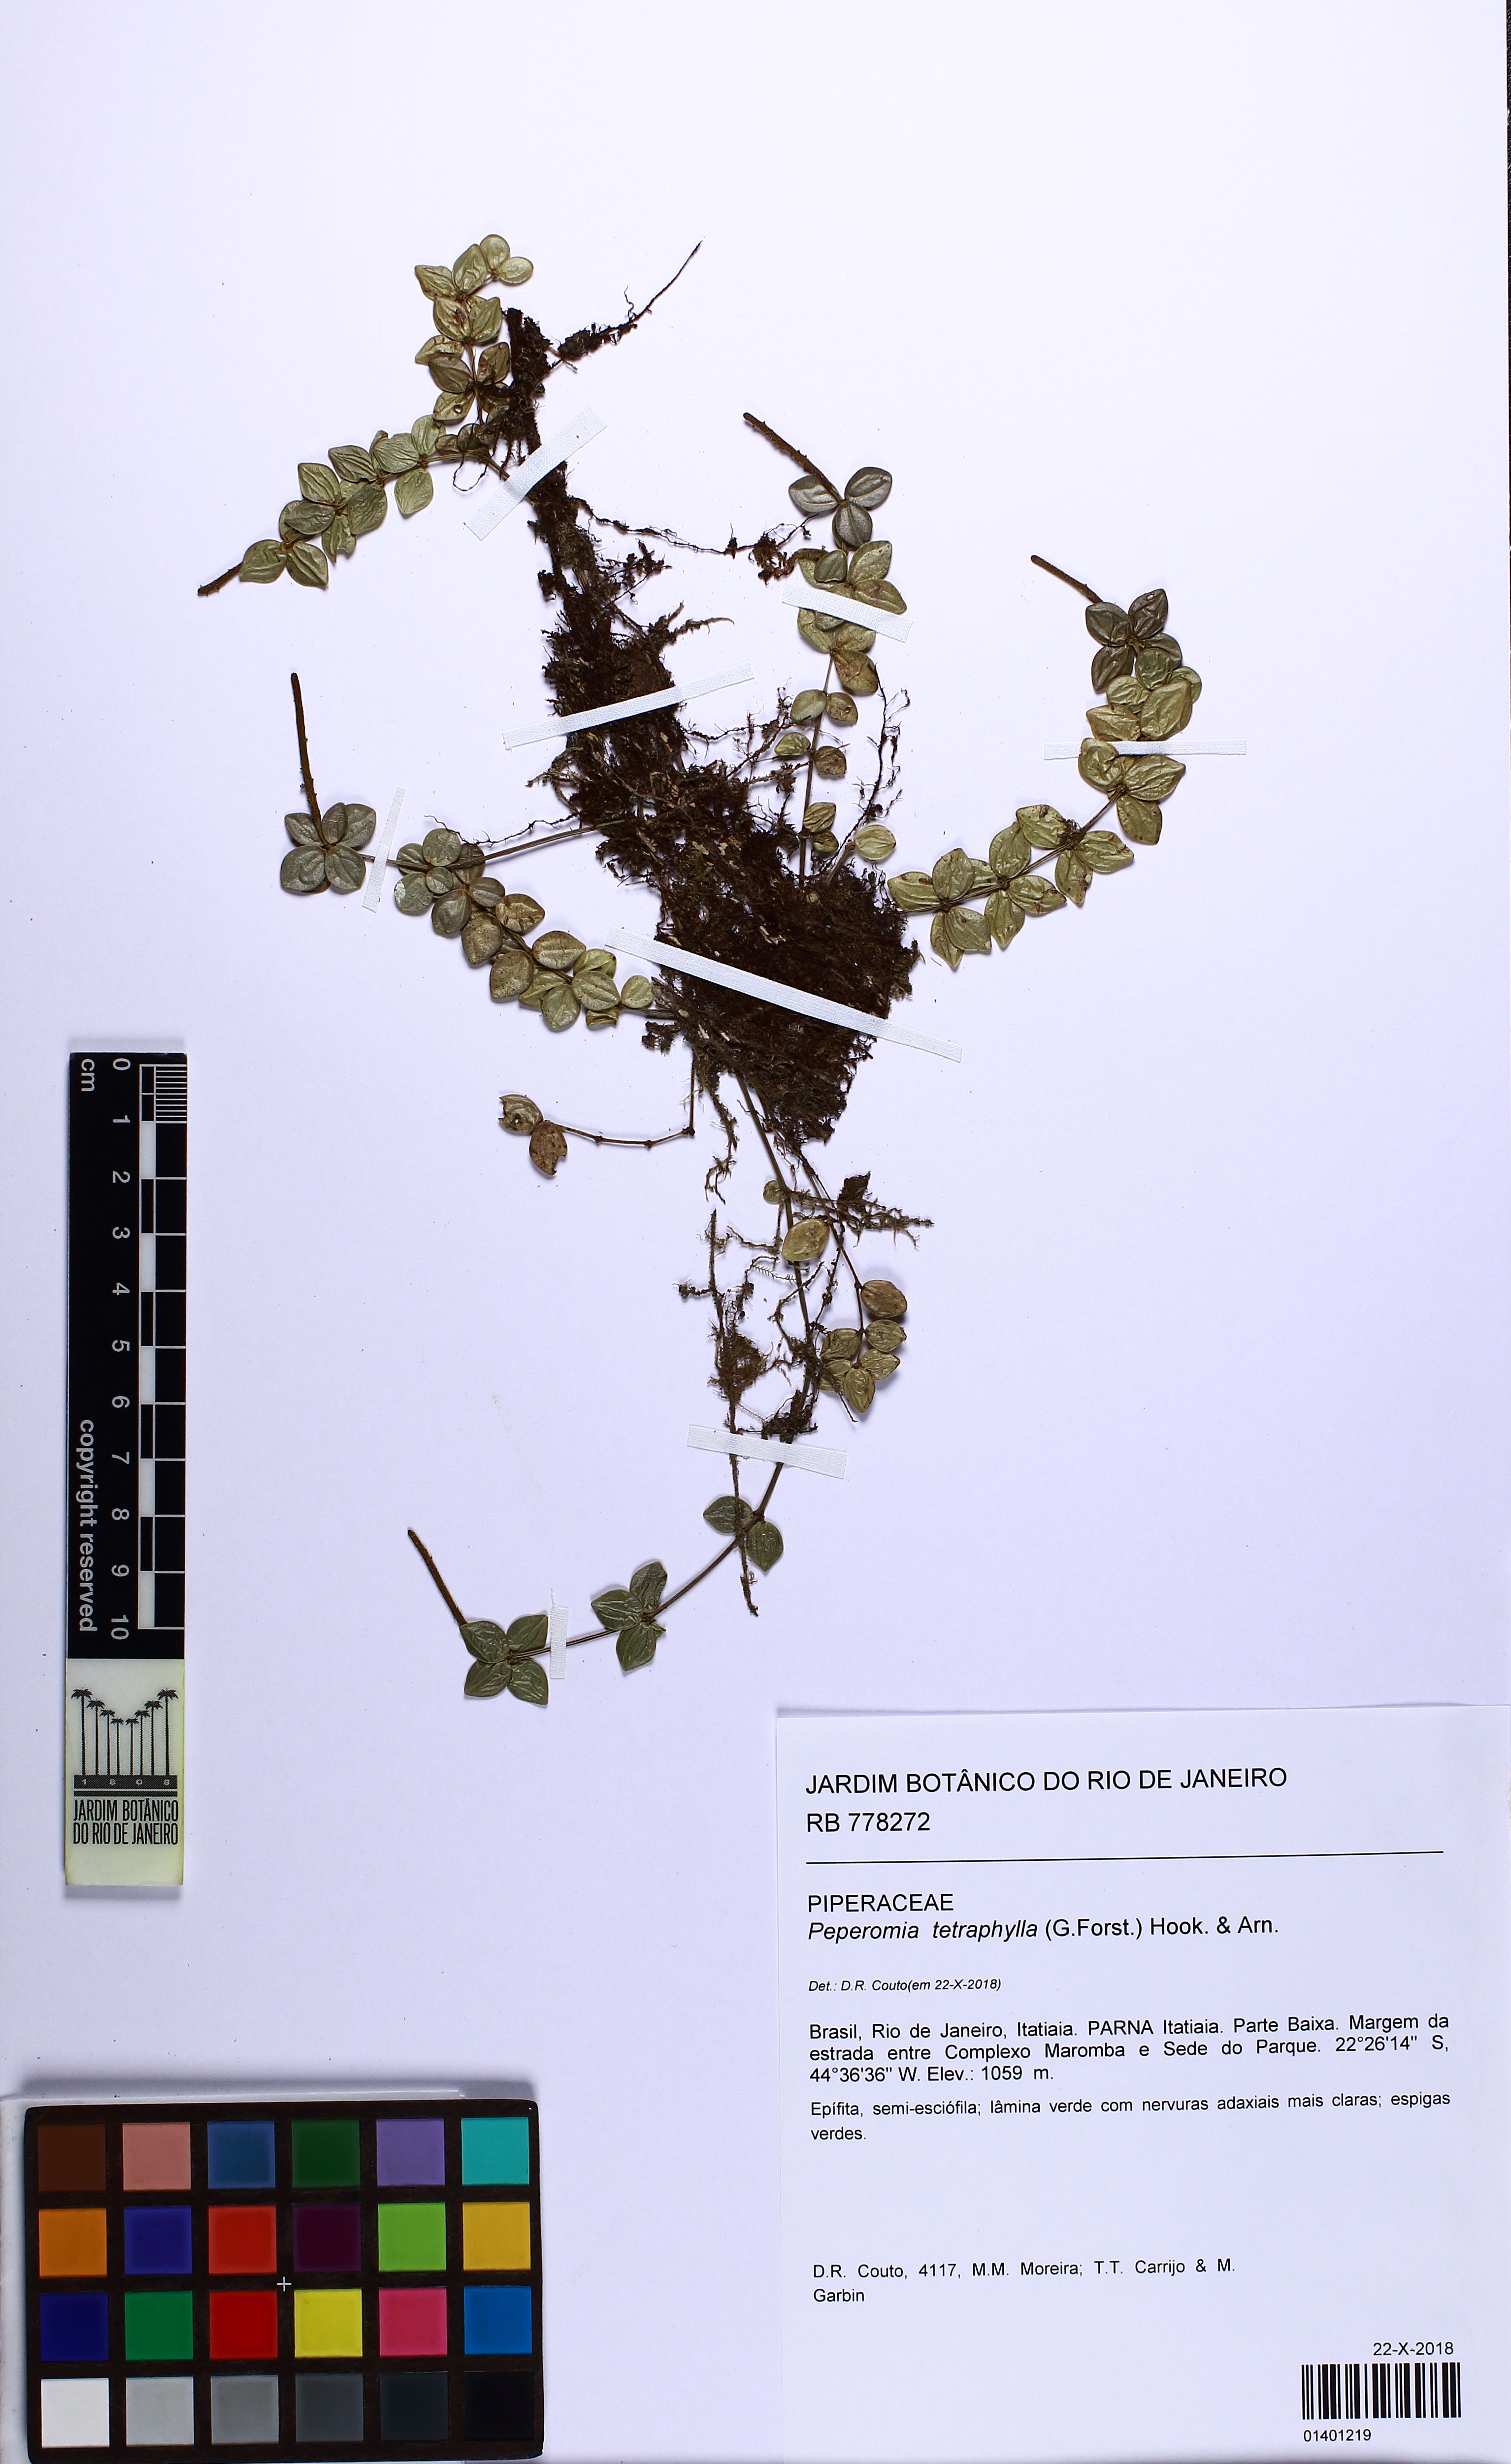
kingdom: Plantae
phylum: Tracheophyta
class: Magnoliopsida
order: Piperales
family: Piperaceae
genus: Peperomia
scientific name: Peperomia tetraphylla
